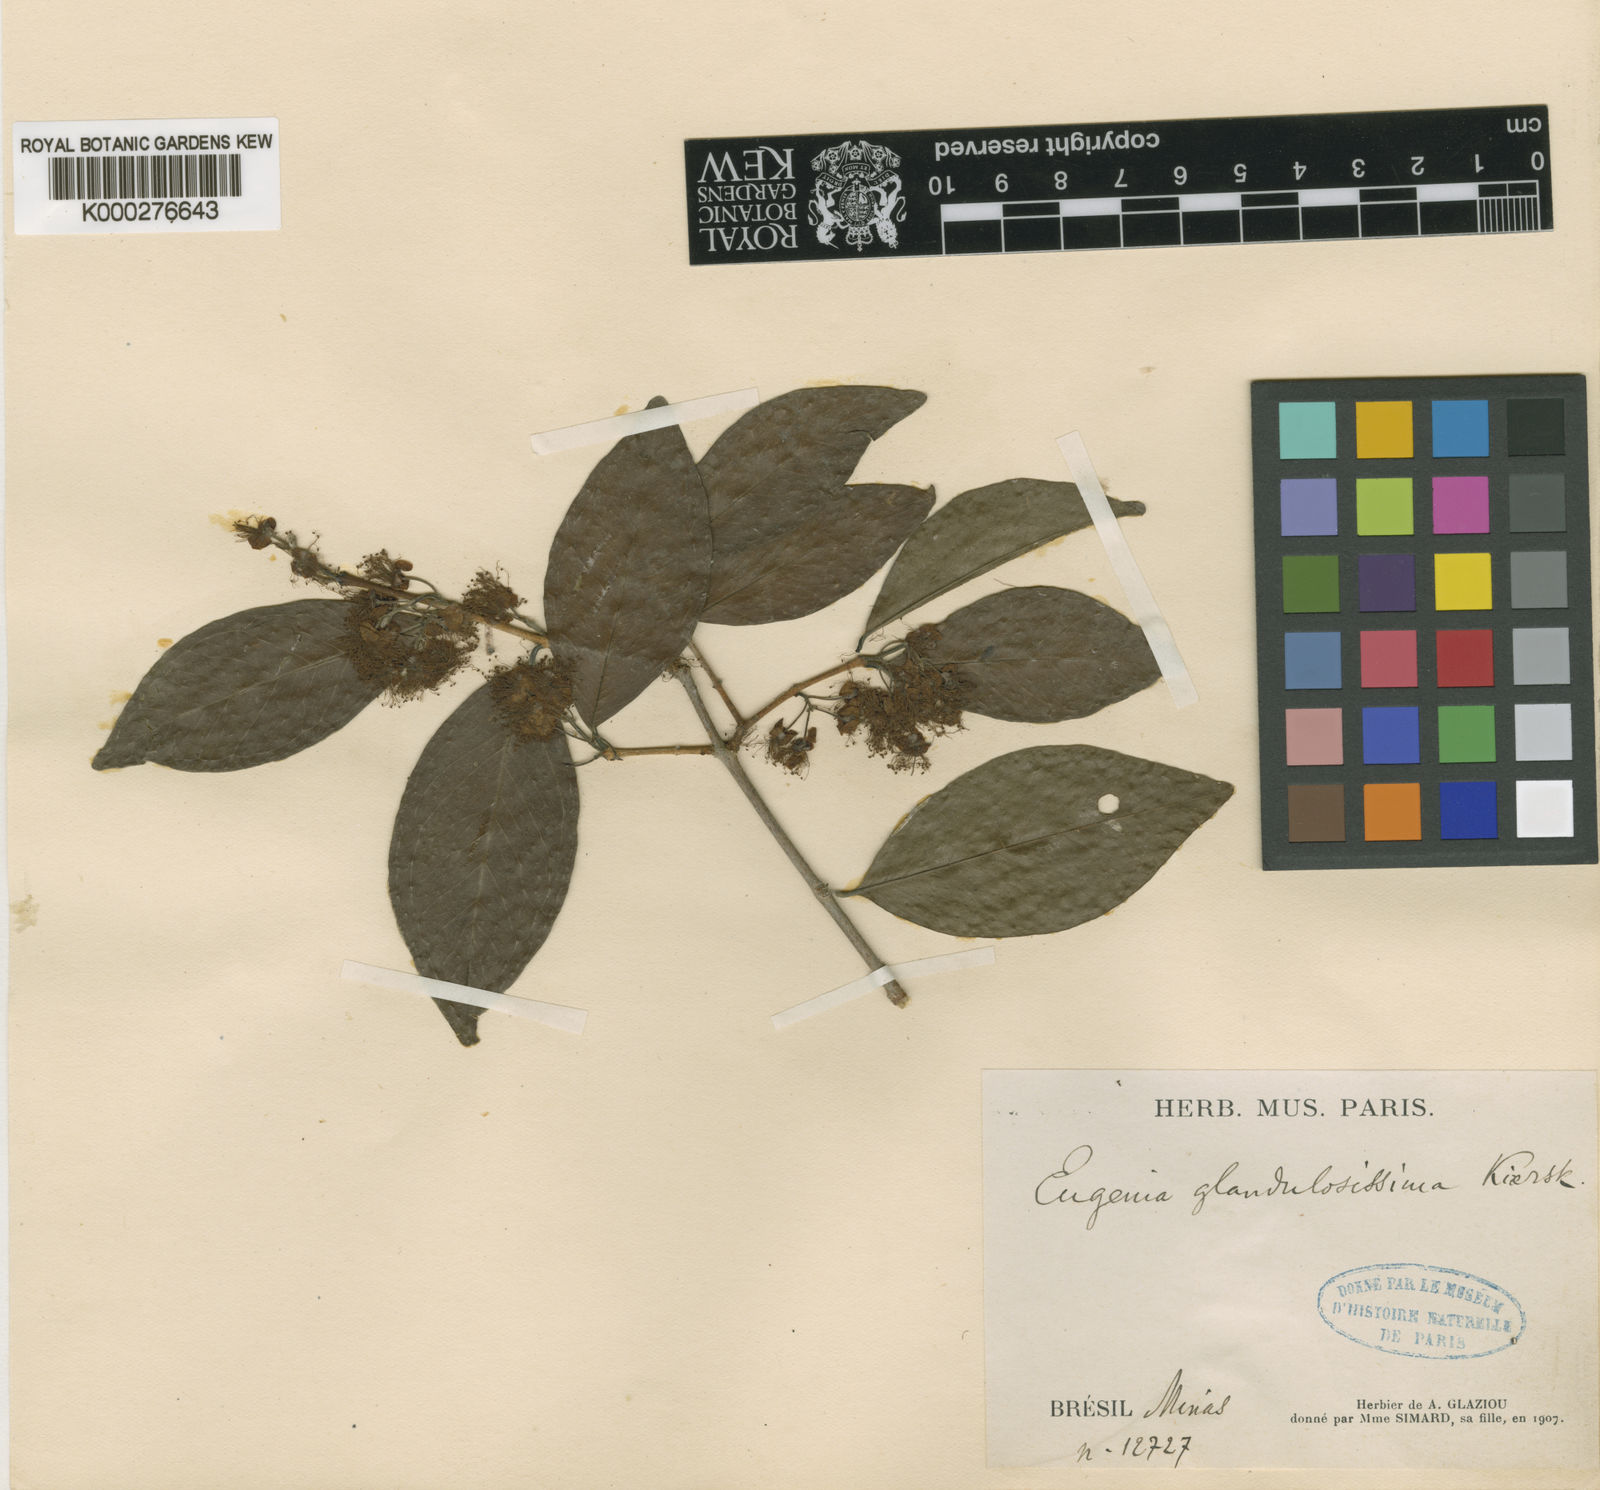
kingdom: Plantae
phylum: Tracheophyta
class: Magnoliopsida
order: Myrtales
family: Myrtaceae
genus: Eugenia
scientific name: Eugenia candolleana
